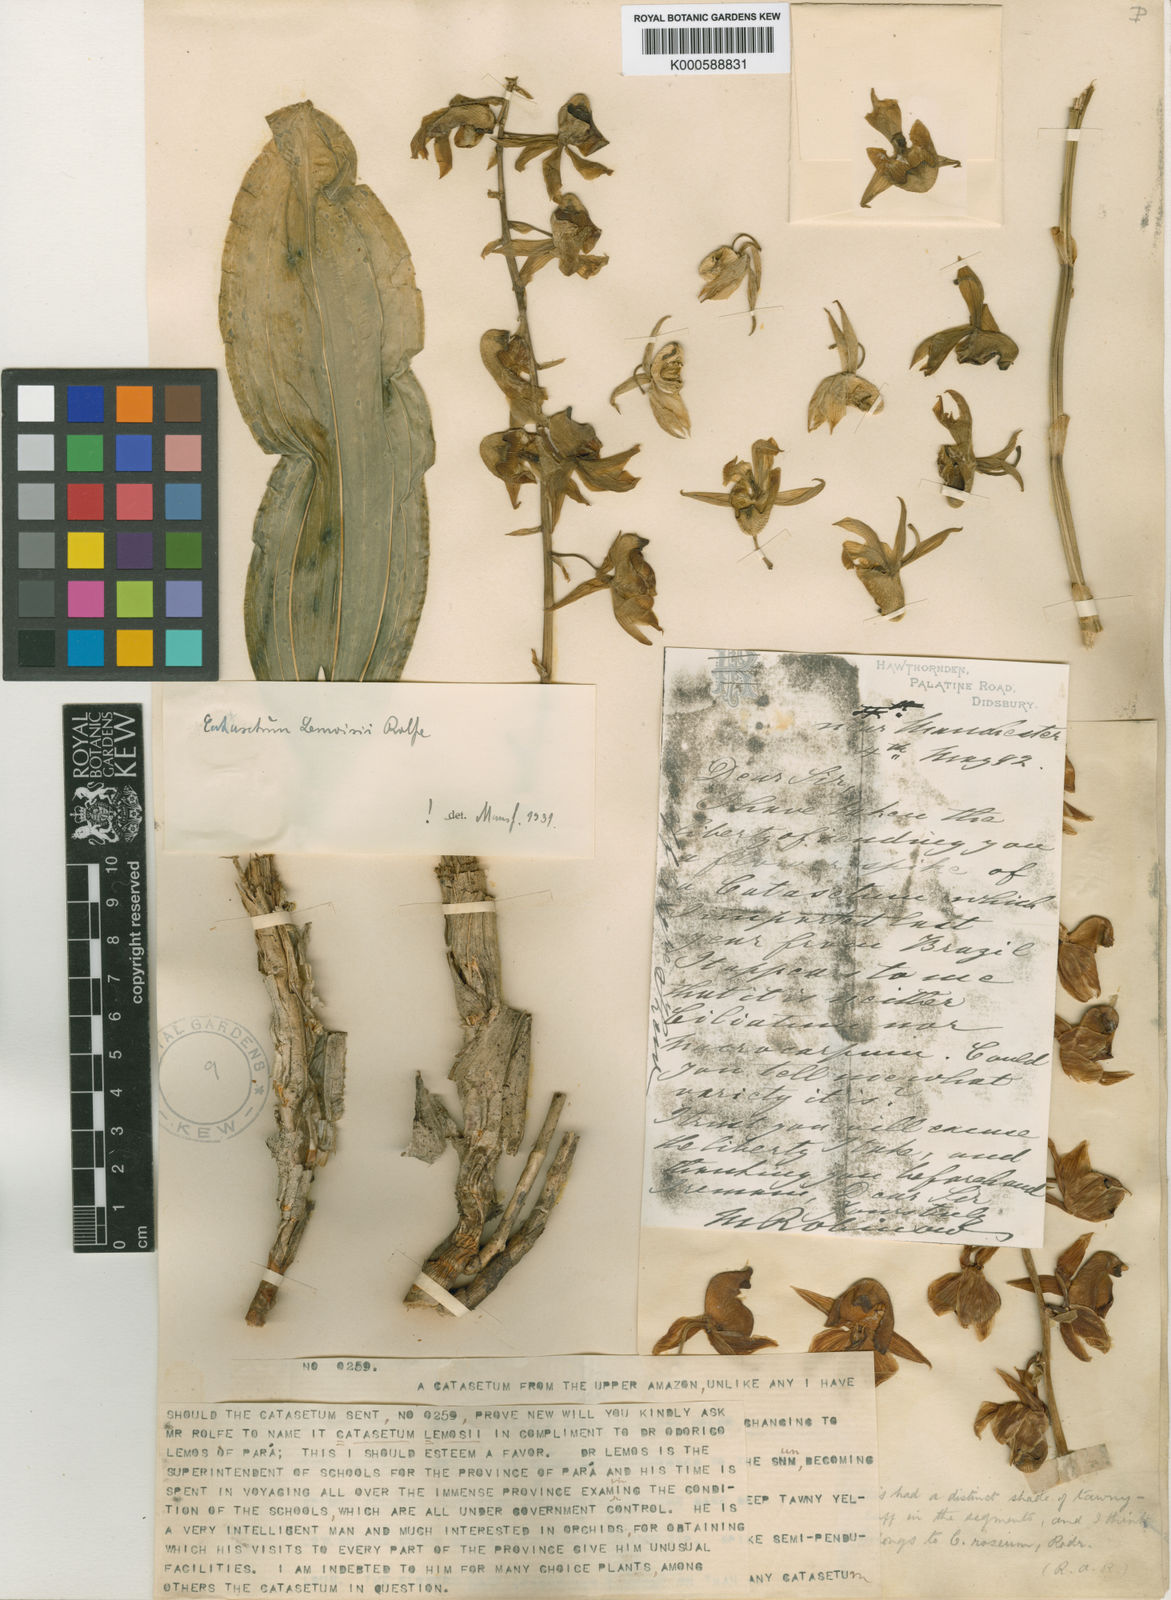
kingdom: Plantae
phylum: Tracheophyta
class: Liliopsida
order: Asparagales
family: Orchidaceae
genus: Catasetum
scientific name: Catasetum lemosii
